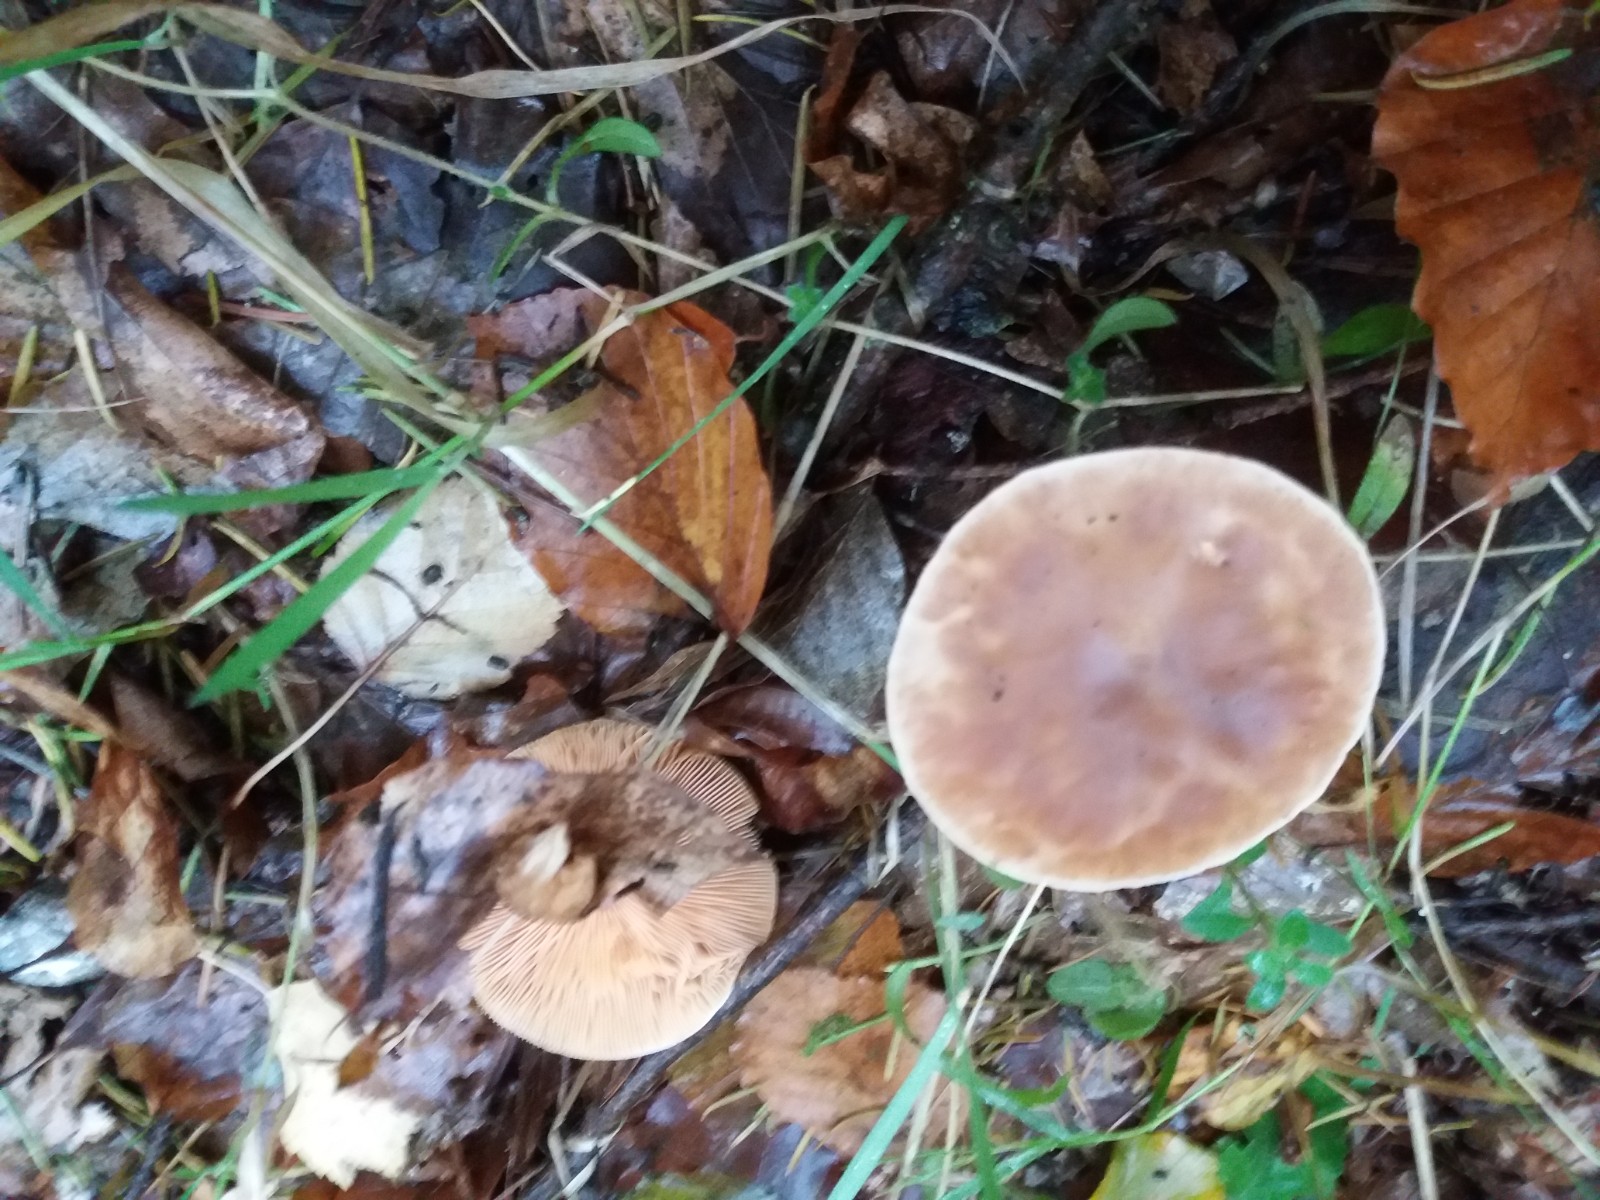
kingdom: Fungi
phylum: Basidiomycota
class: Agaricomycetes
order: Agaricales
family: Tricholomataceae
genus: Melanoleuca
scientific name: Melanoleuca cognata
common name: gyldengrå munkehat
